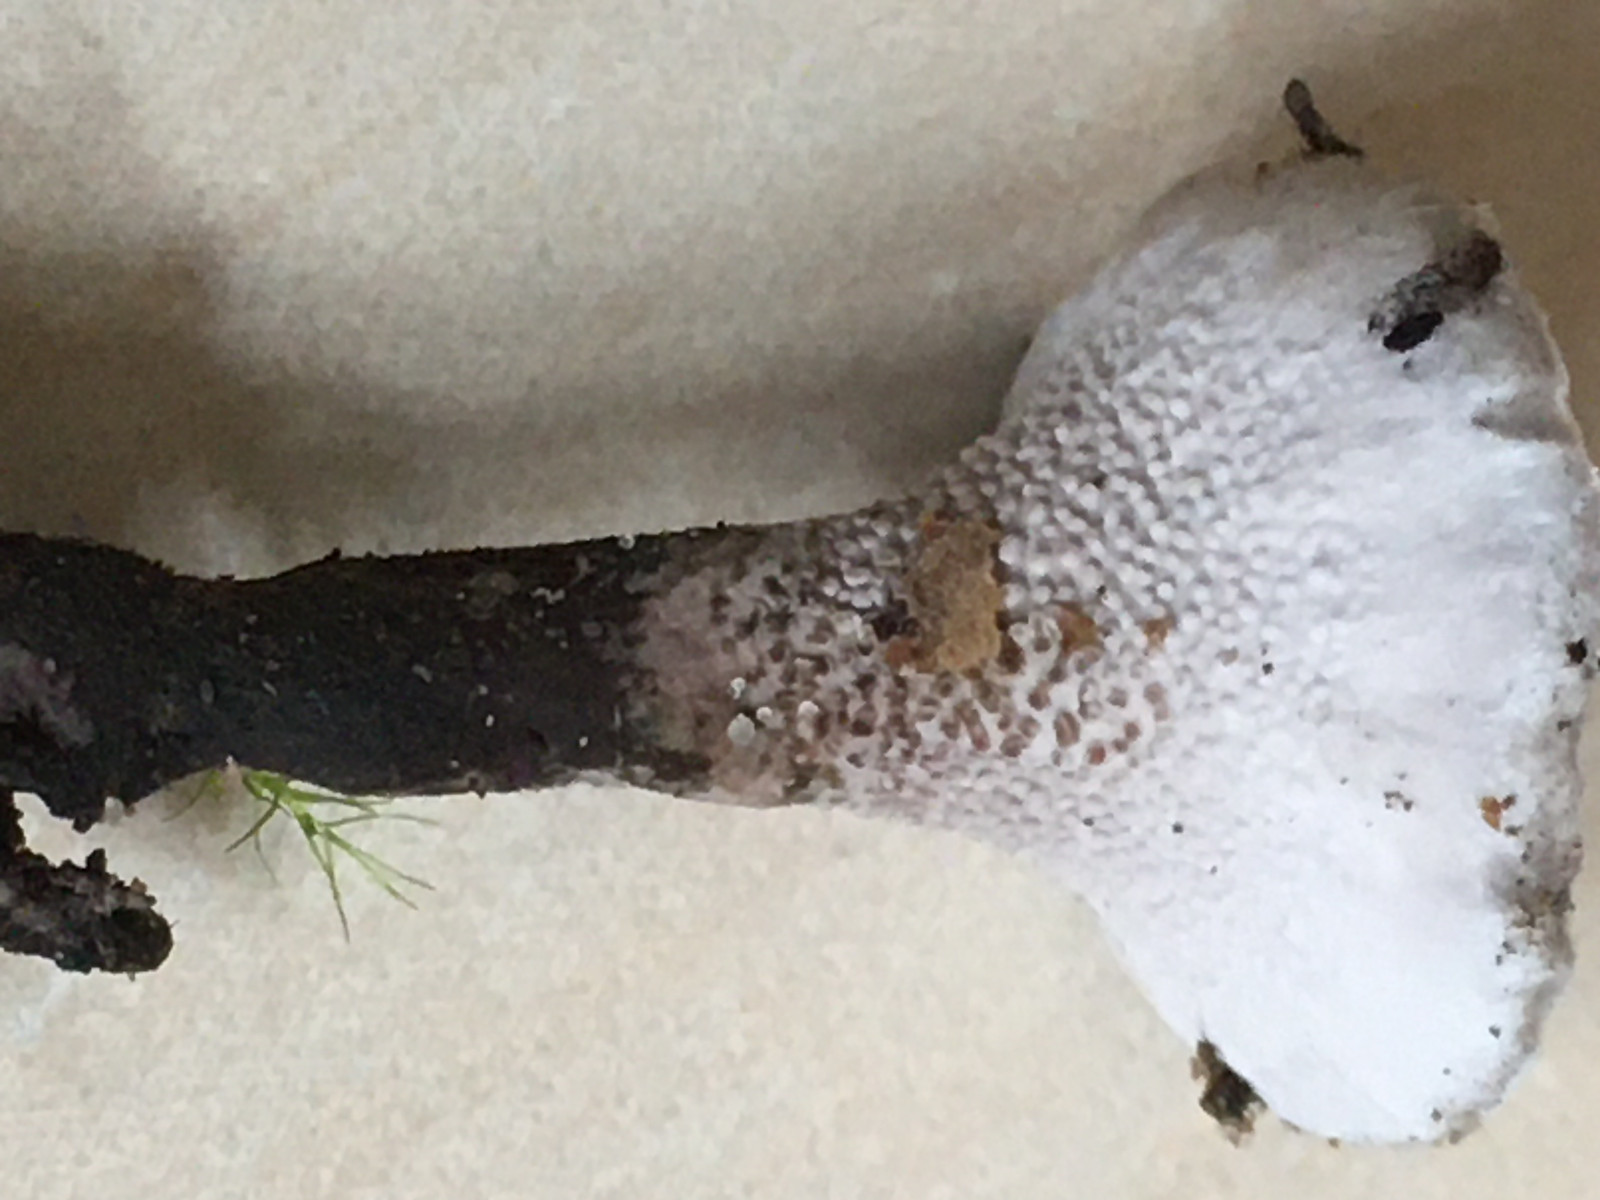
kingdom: Fungi
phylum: Basidiomycota
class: Agaricomycetes
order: Thelephorales
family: Thelephoraceae
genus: Phellodon
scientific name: Phellodon tomentosus
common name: vellugtende duftpigsvamp
